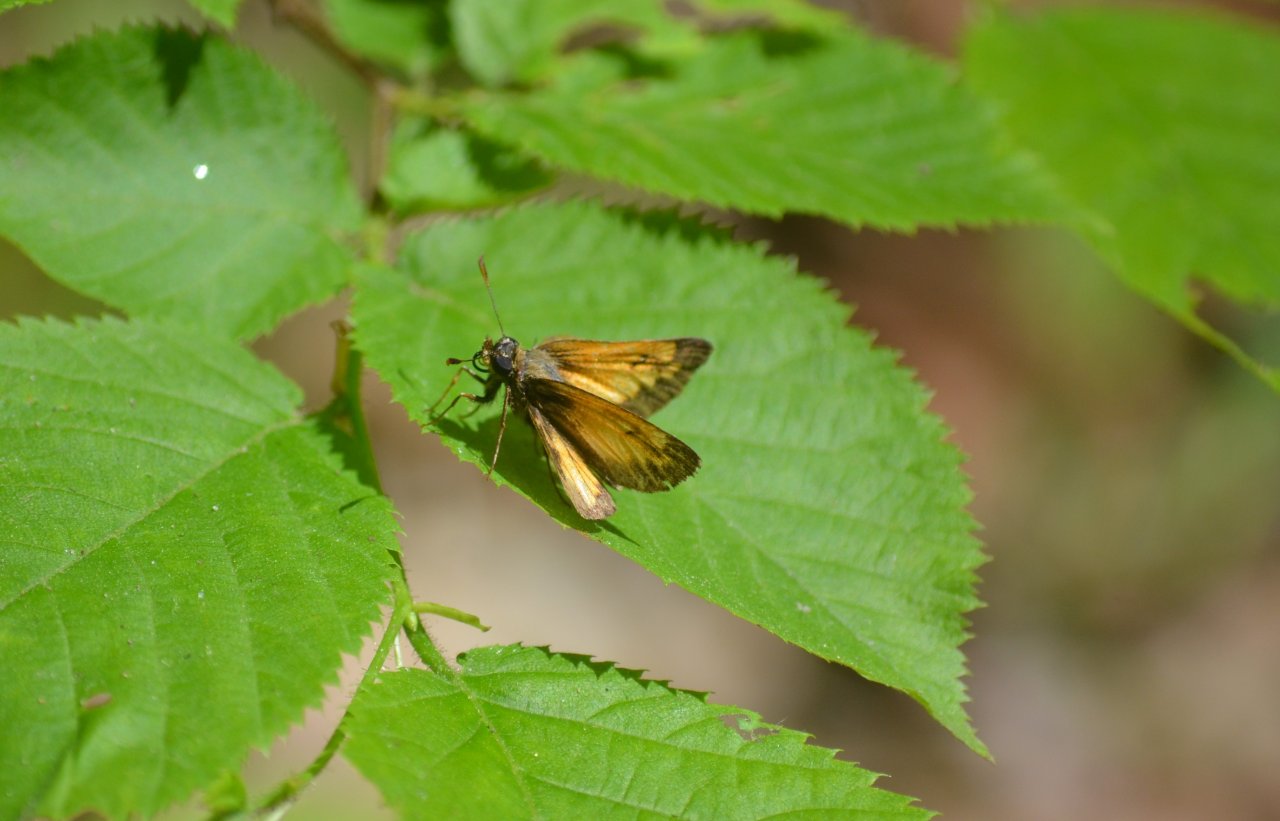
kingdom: Animalia
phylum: Arthropoda
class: Insecta
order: Lepidoptera
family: Hesperiidae
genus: Lon
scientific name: Lon hobomok
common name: Hobomok Skipper
